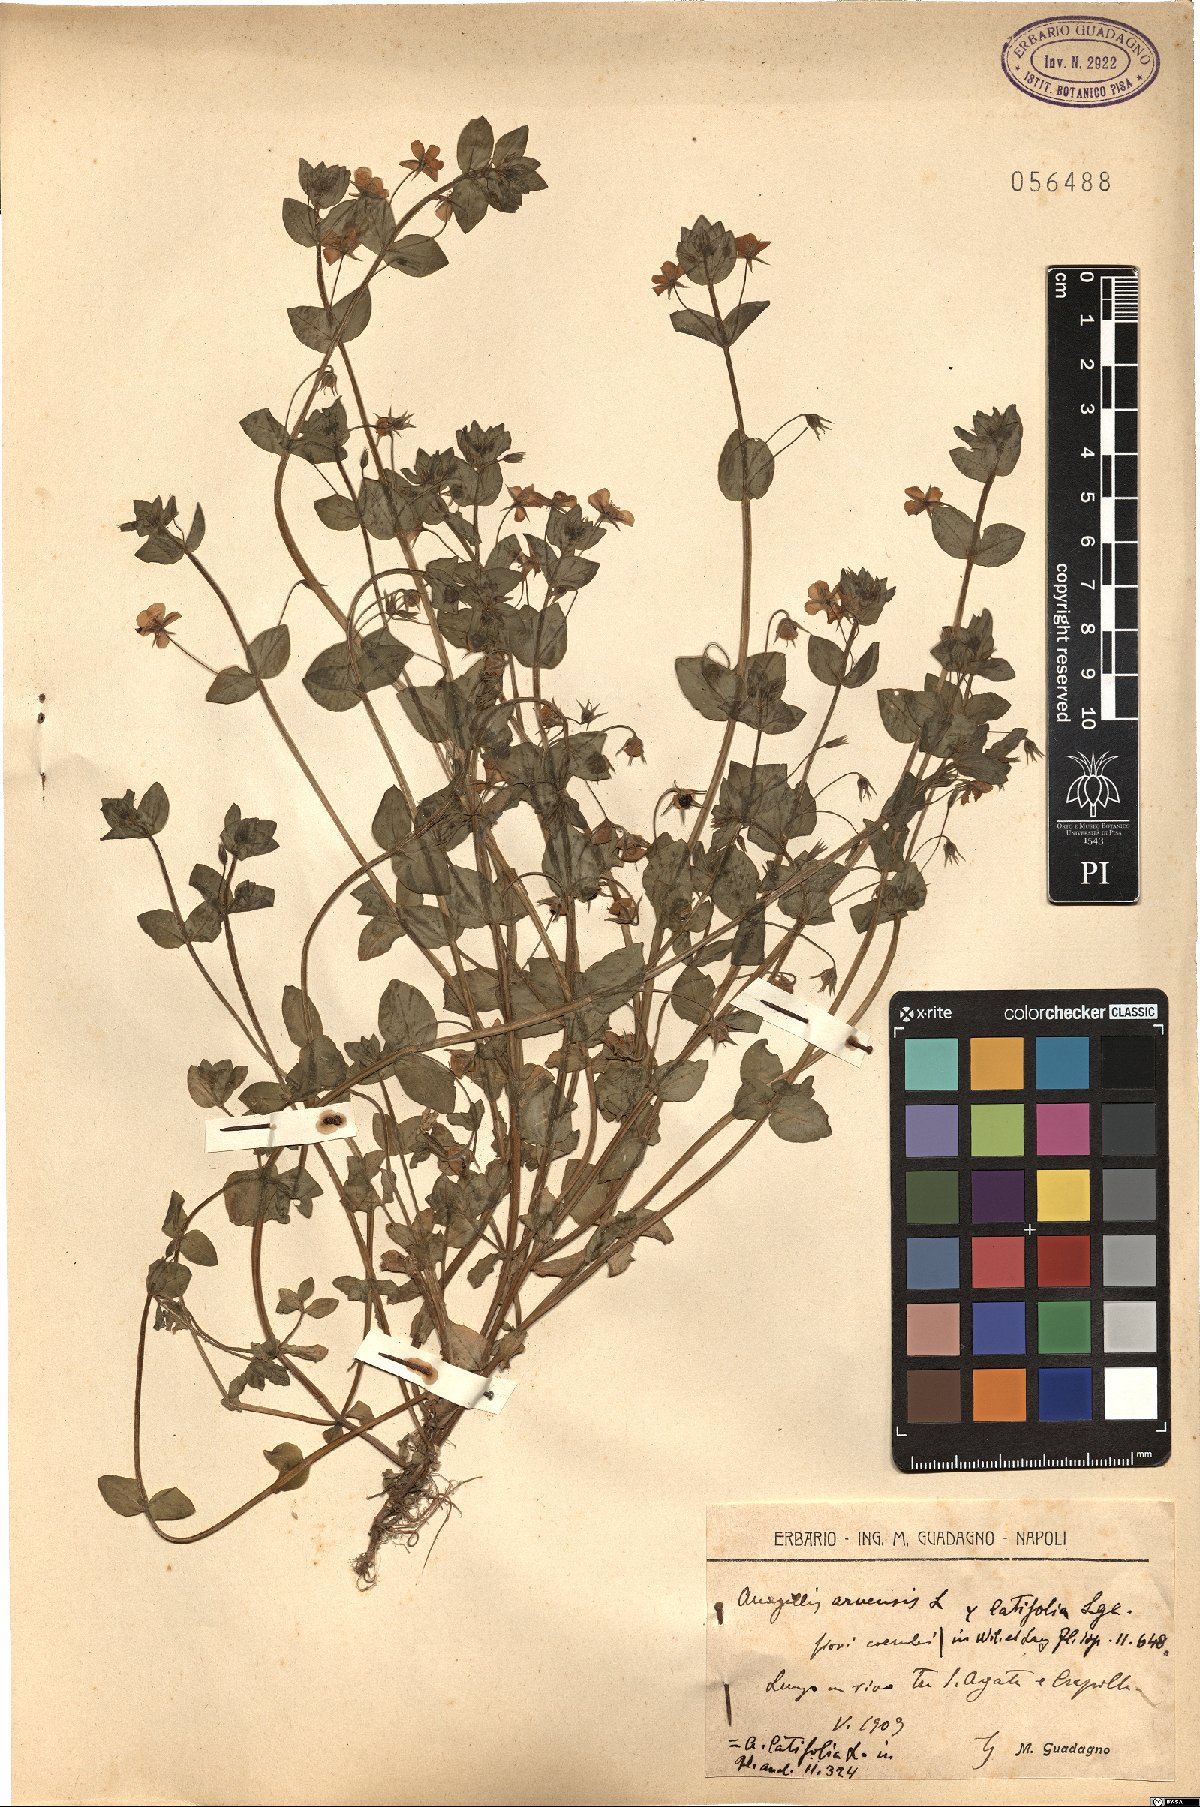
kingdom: Plantae
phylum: Tracheophyta
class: Magnoliopsida
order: Ericales
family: Primulaceae
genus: Lysimachia
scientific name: Lysimachia loeflingii
